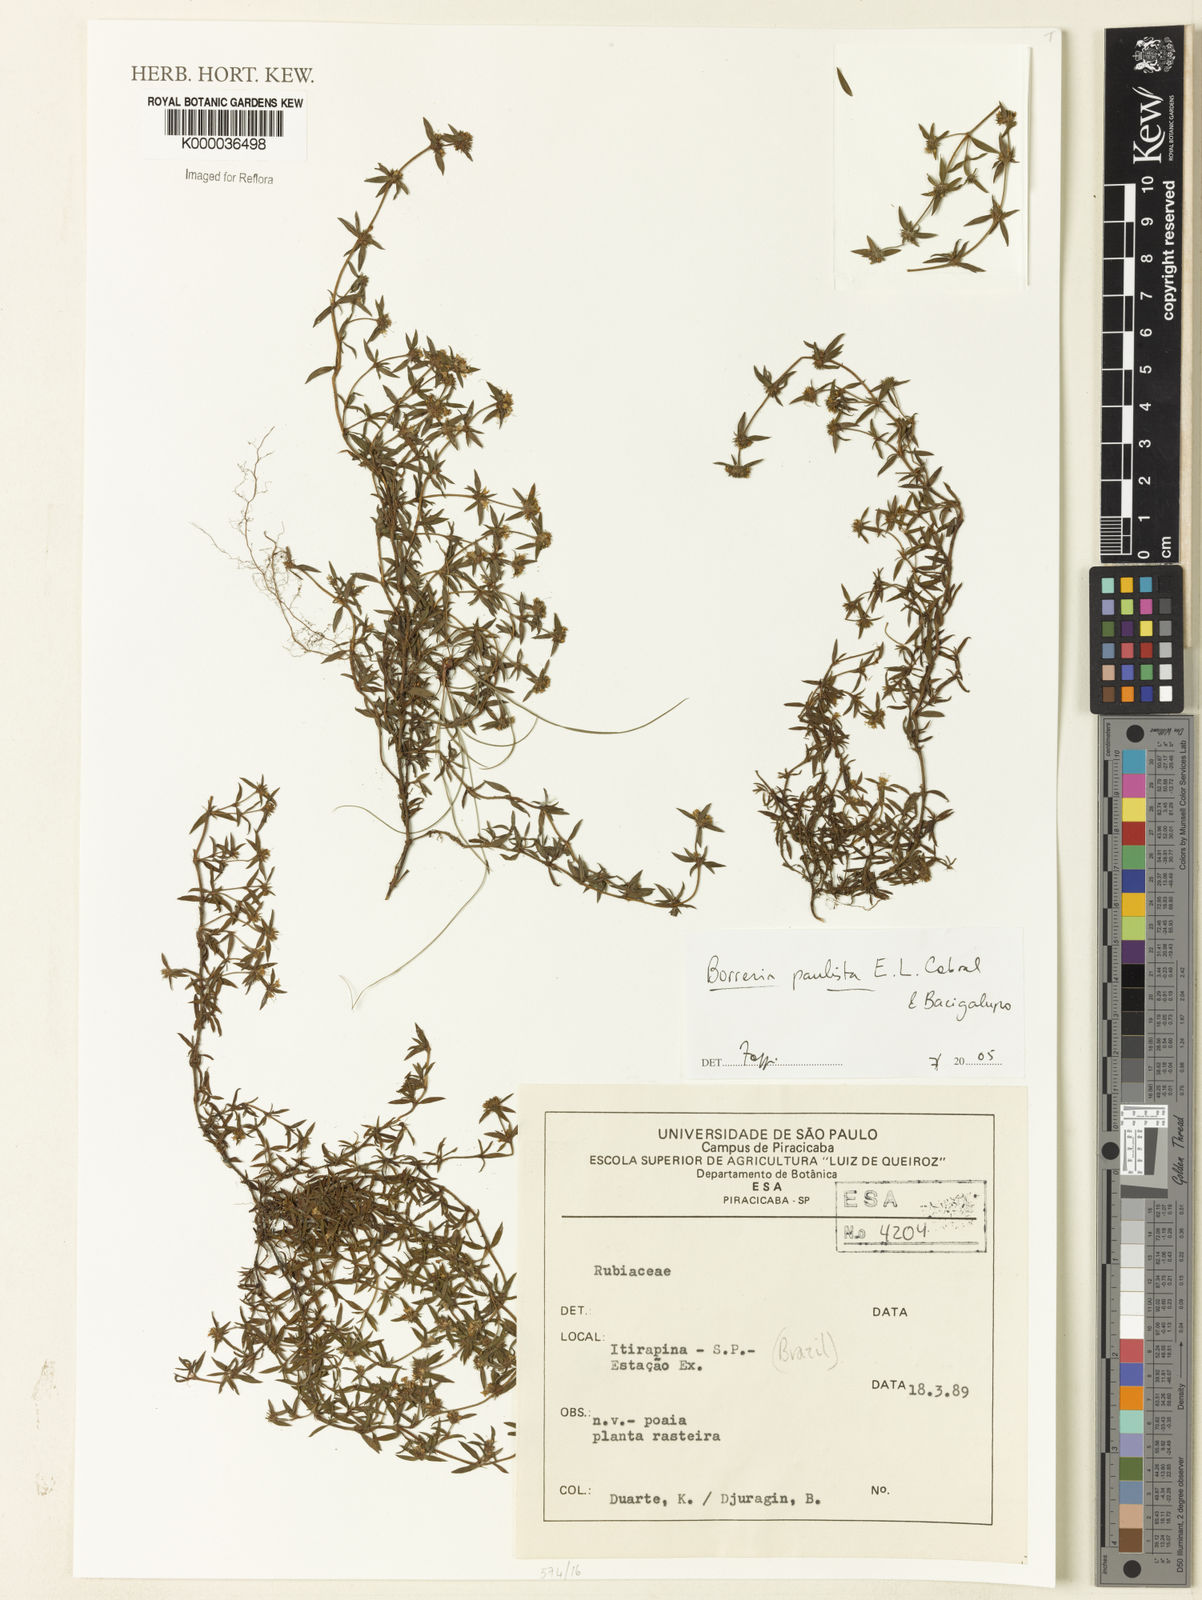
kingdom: Plantae
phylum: Tracheophyta
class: Magnoliopsida
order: Gentianales
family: Rubiaceae
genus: Spermacoce
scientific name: Spermacoce paulista
